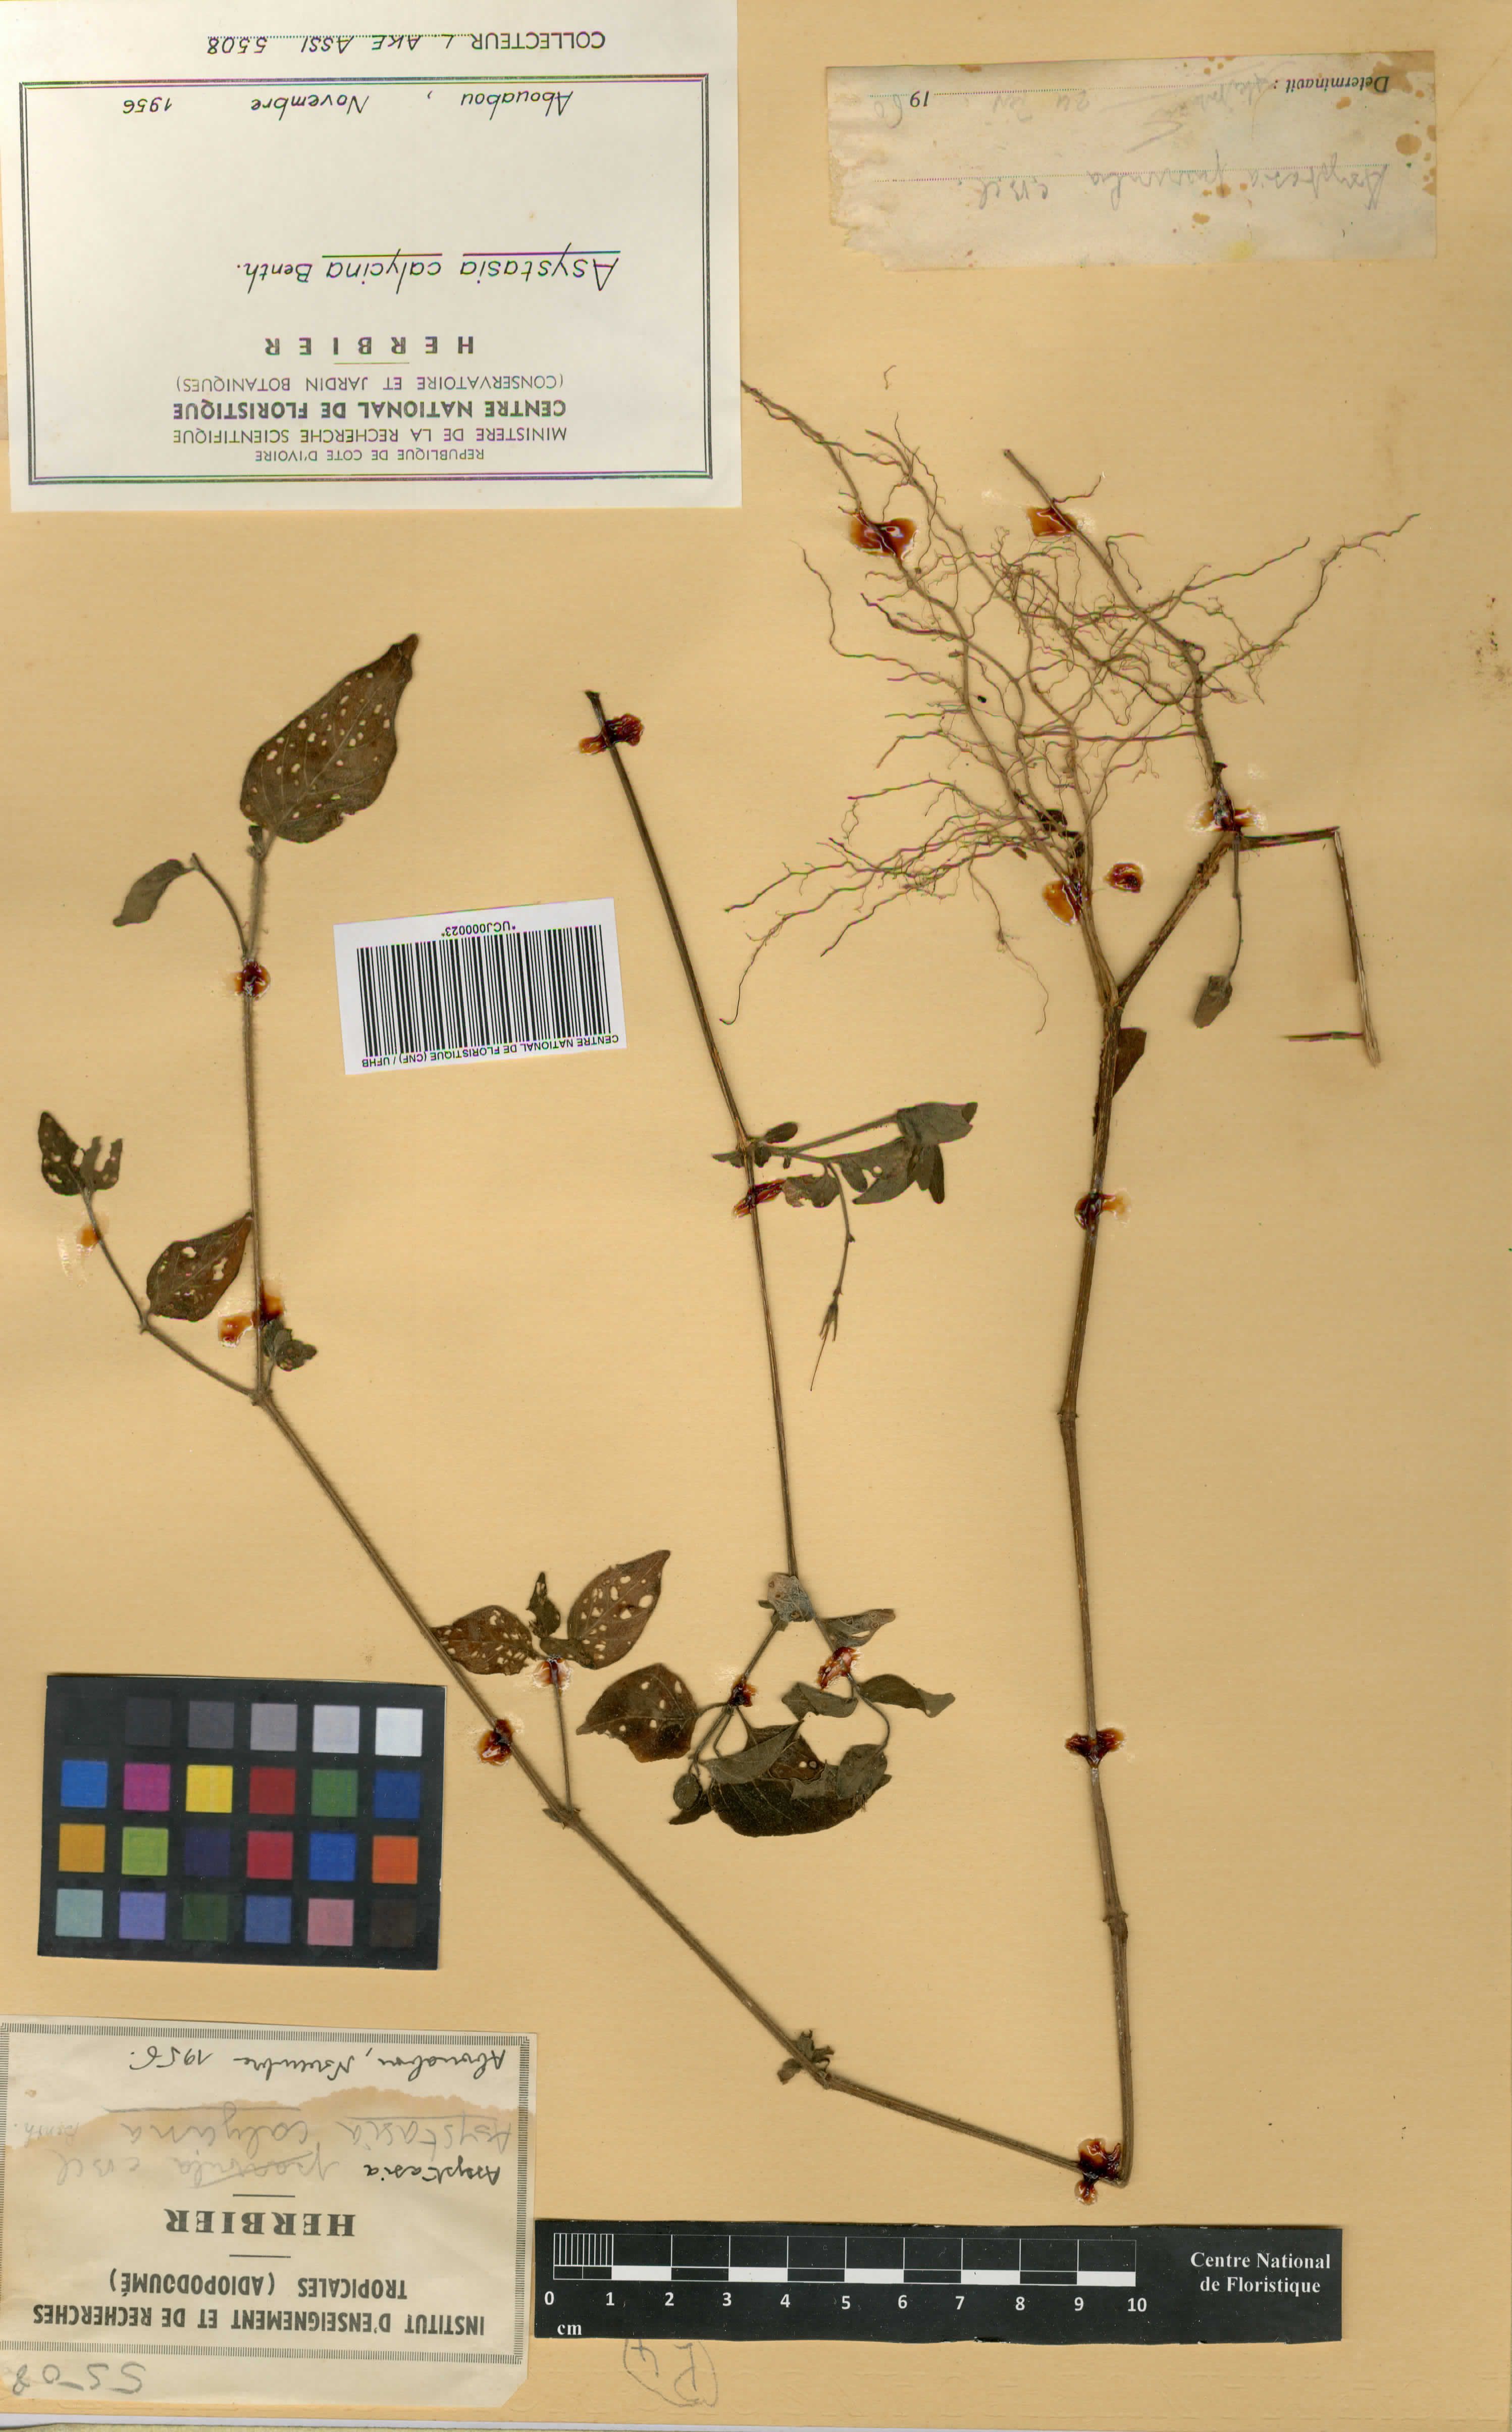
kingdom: Plantae
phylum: Tracheophyta
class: Magnoliopsida
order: Lamiales
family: Acanthaceae
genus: Asystasia
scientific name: Asystasia buettneri
